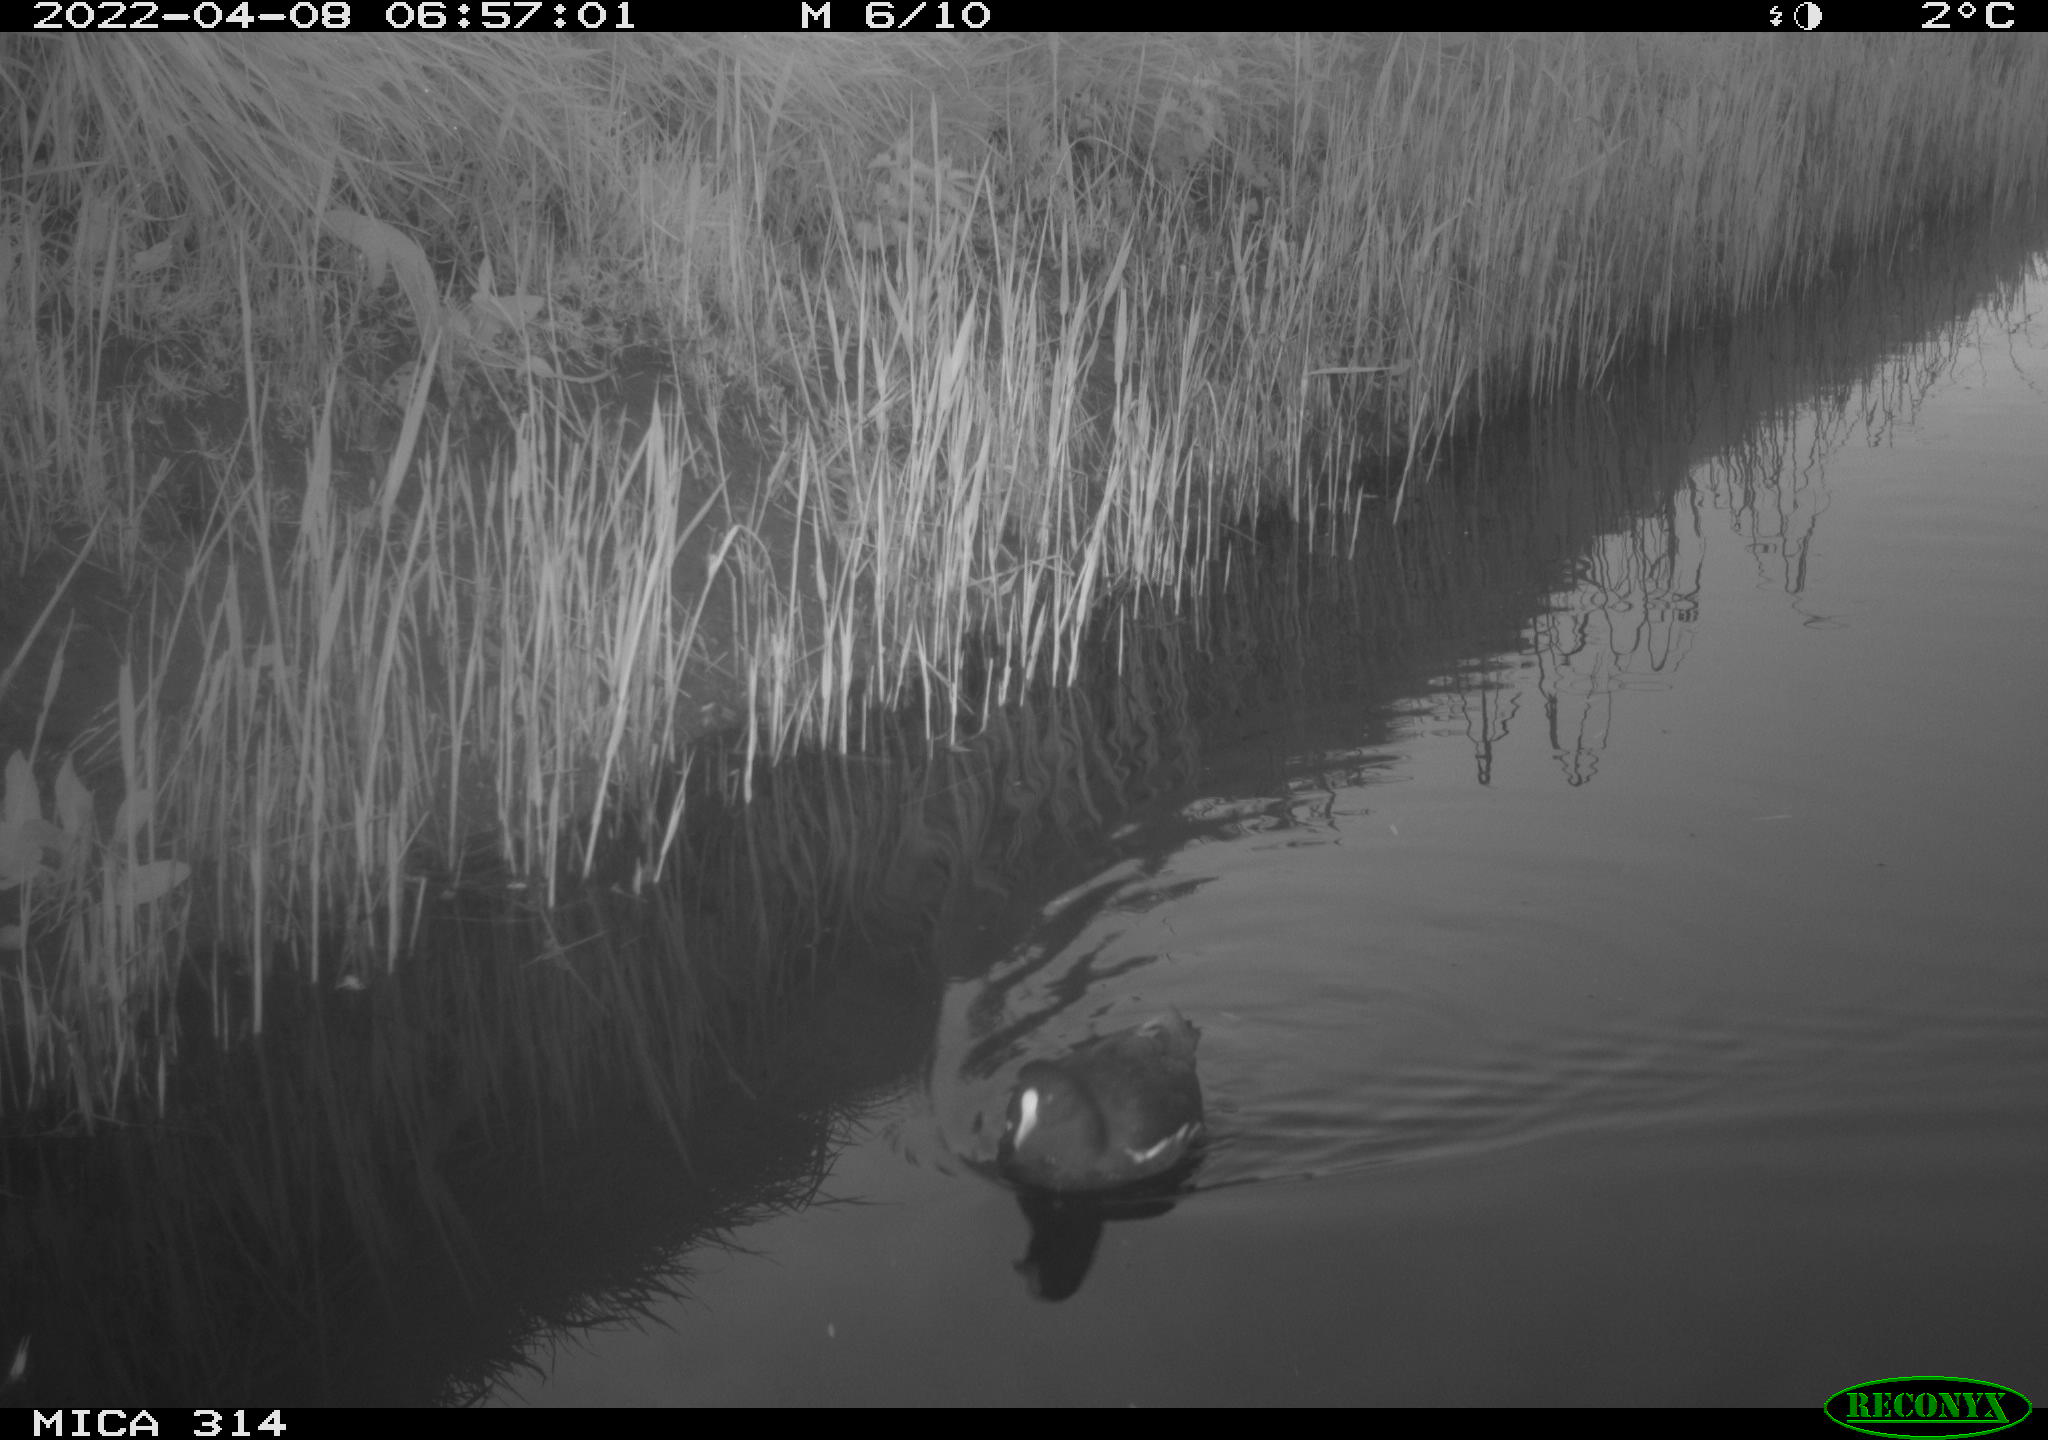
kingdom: Animalia
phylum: Chordata
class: Aves
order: Gruiformes
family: Rallidae
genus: Gallinula
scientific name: Gallinula chloropus
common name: Common moorhen
